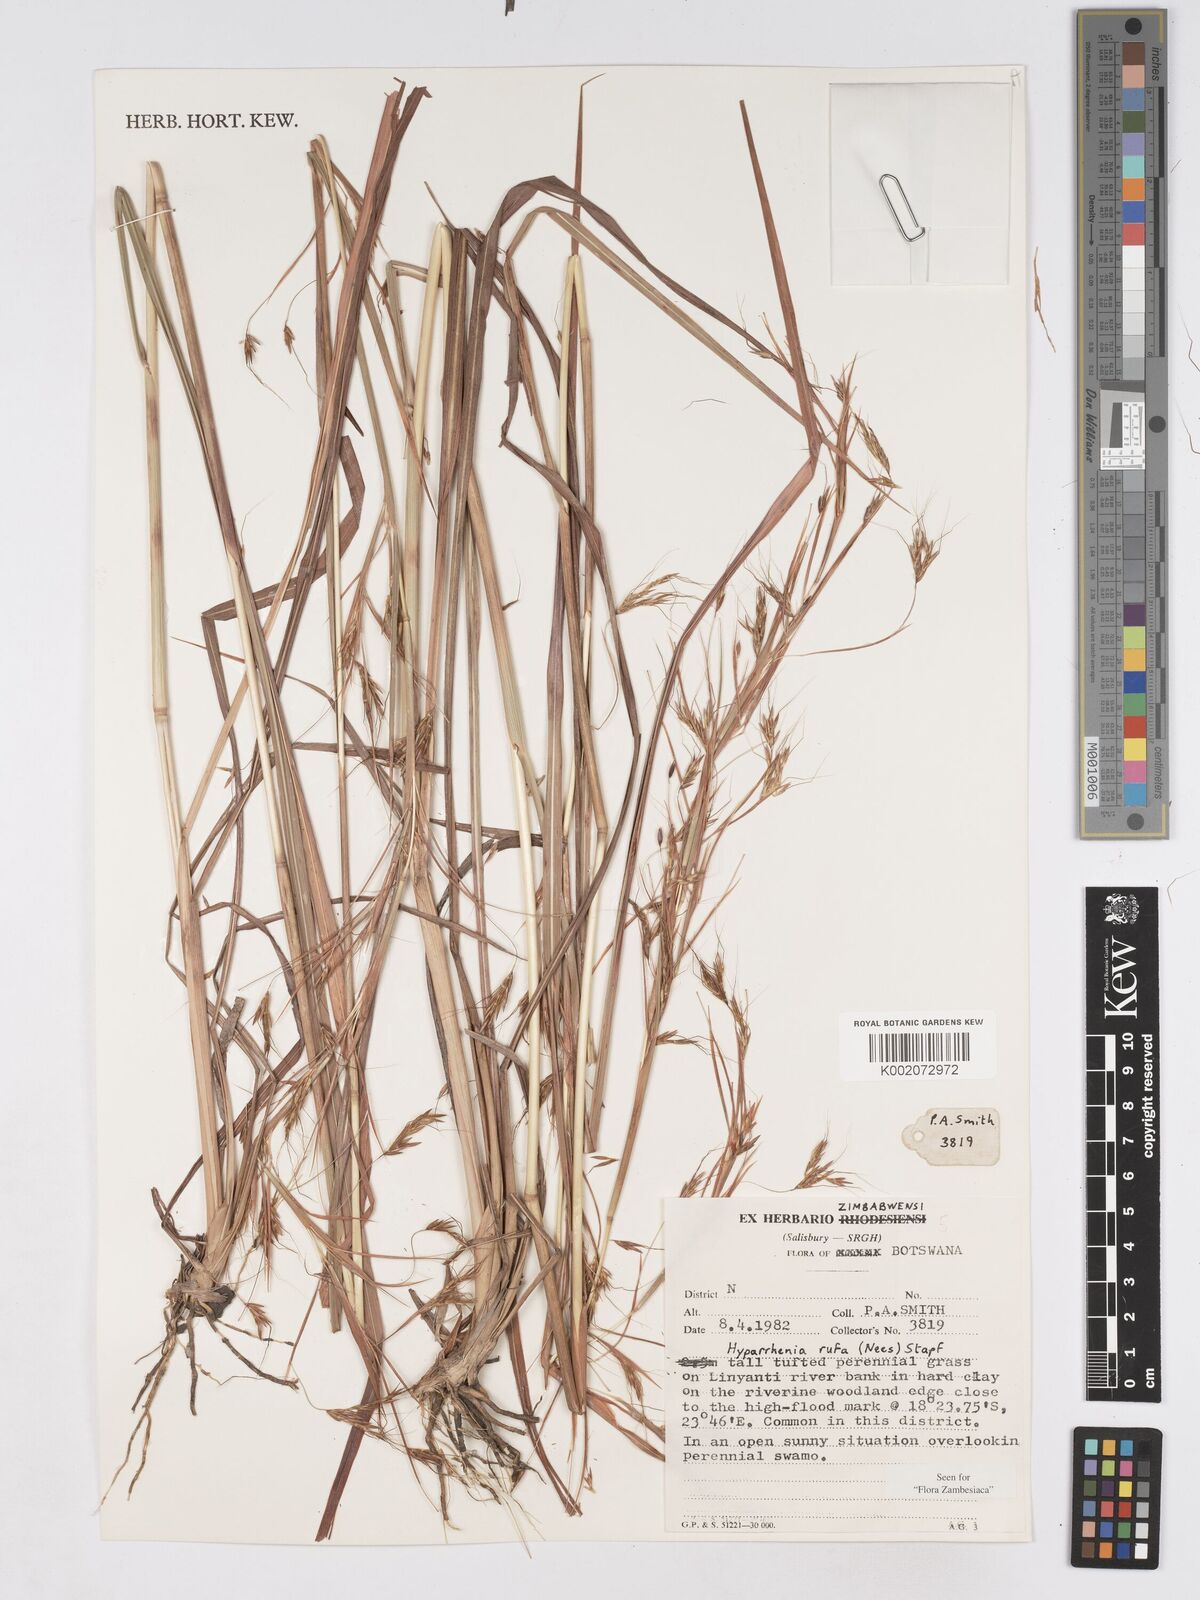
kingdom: Plantae
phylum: Tracheophyta
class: Liliopsida
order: Poales
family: Poaceae
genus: Hyparrhenia
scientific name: Hyparrhenia rufa
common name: Jaraguagrass
